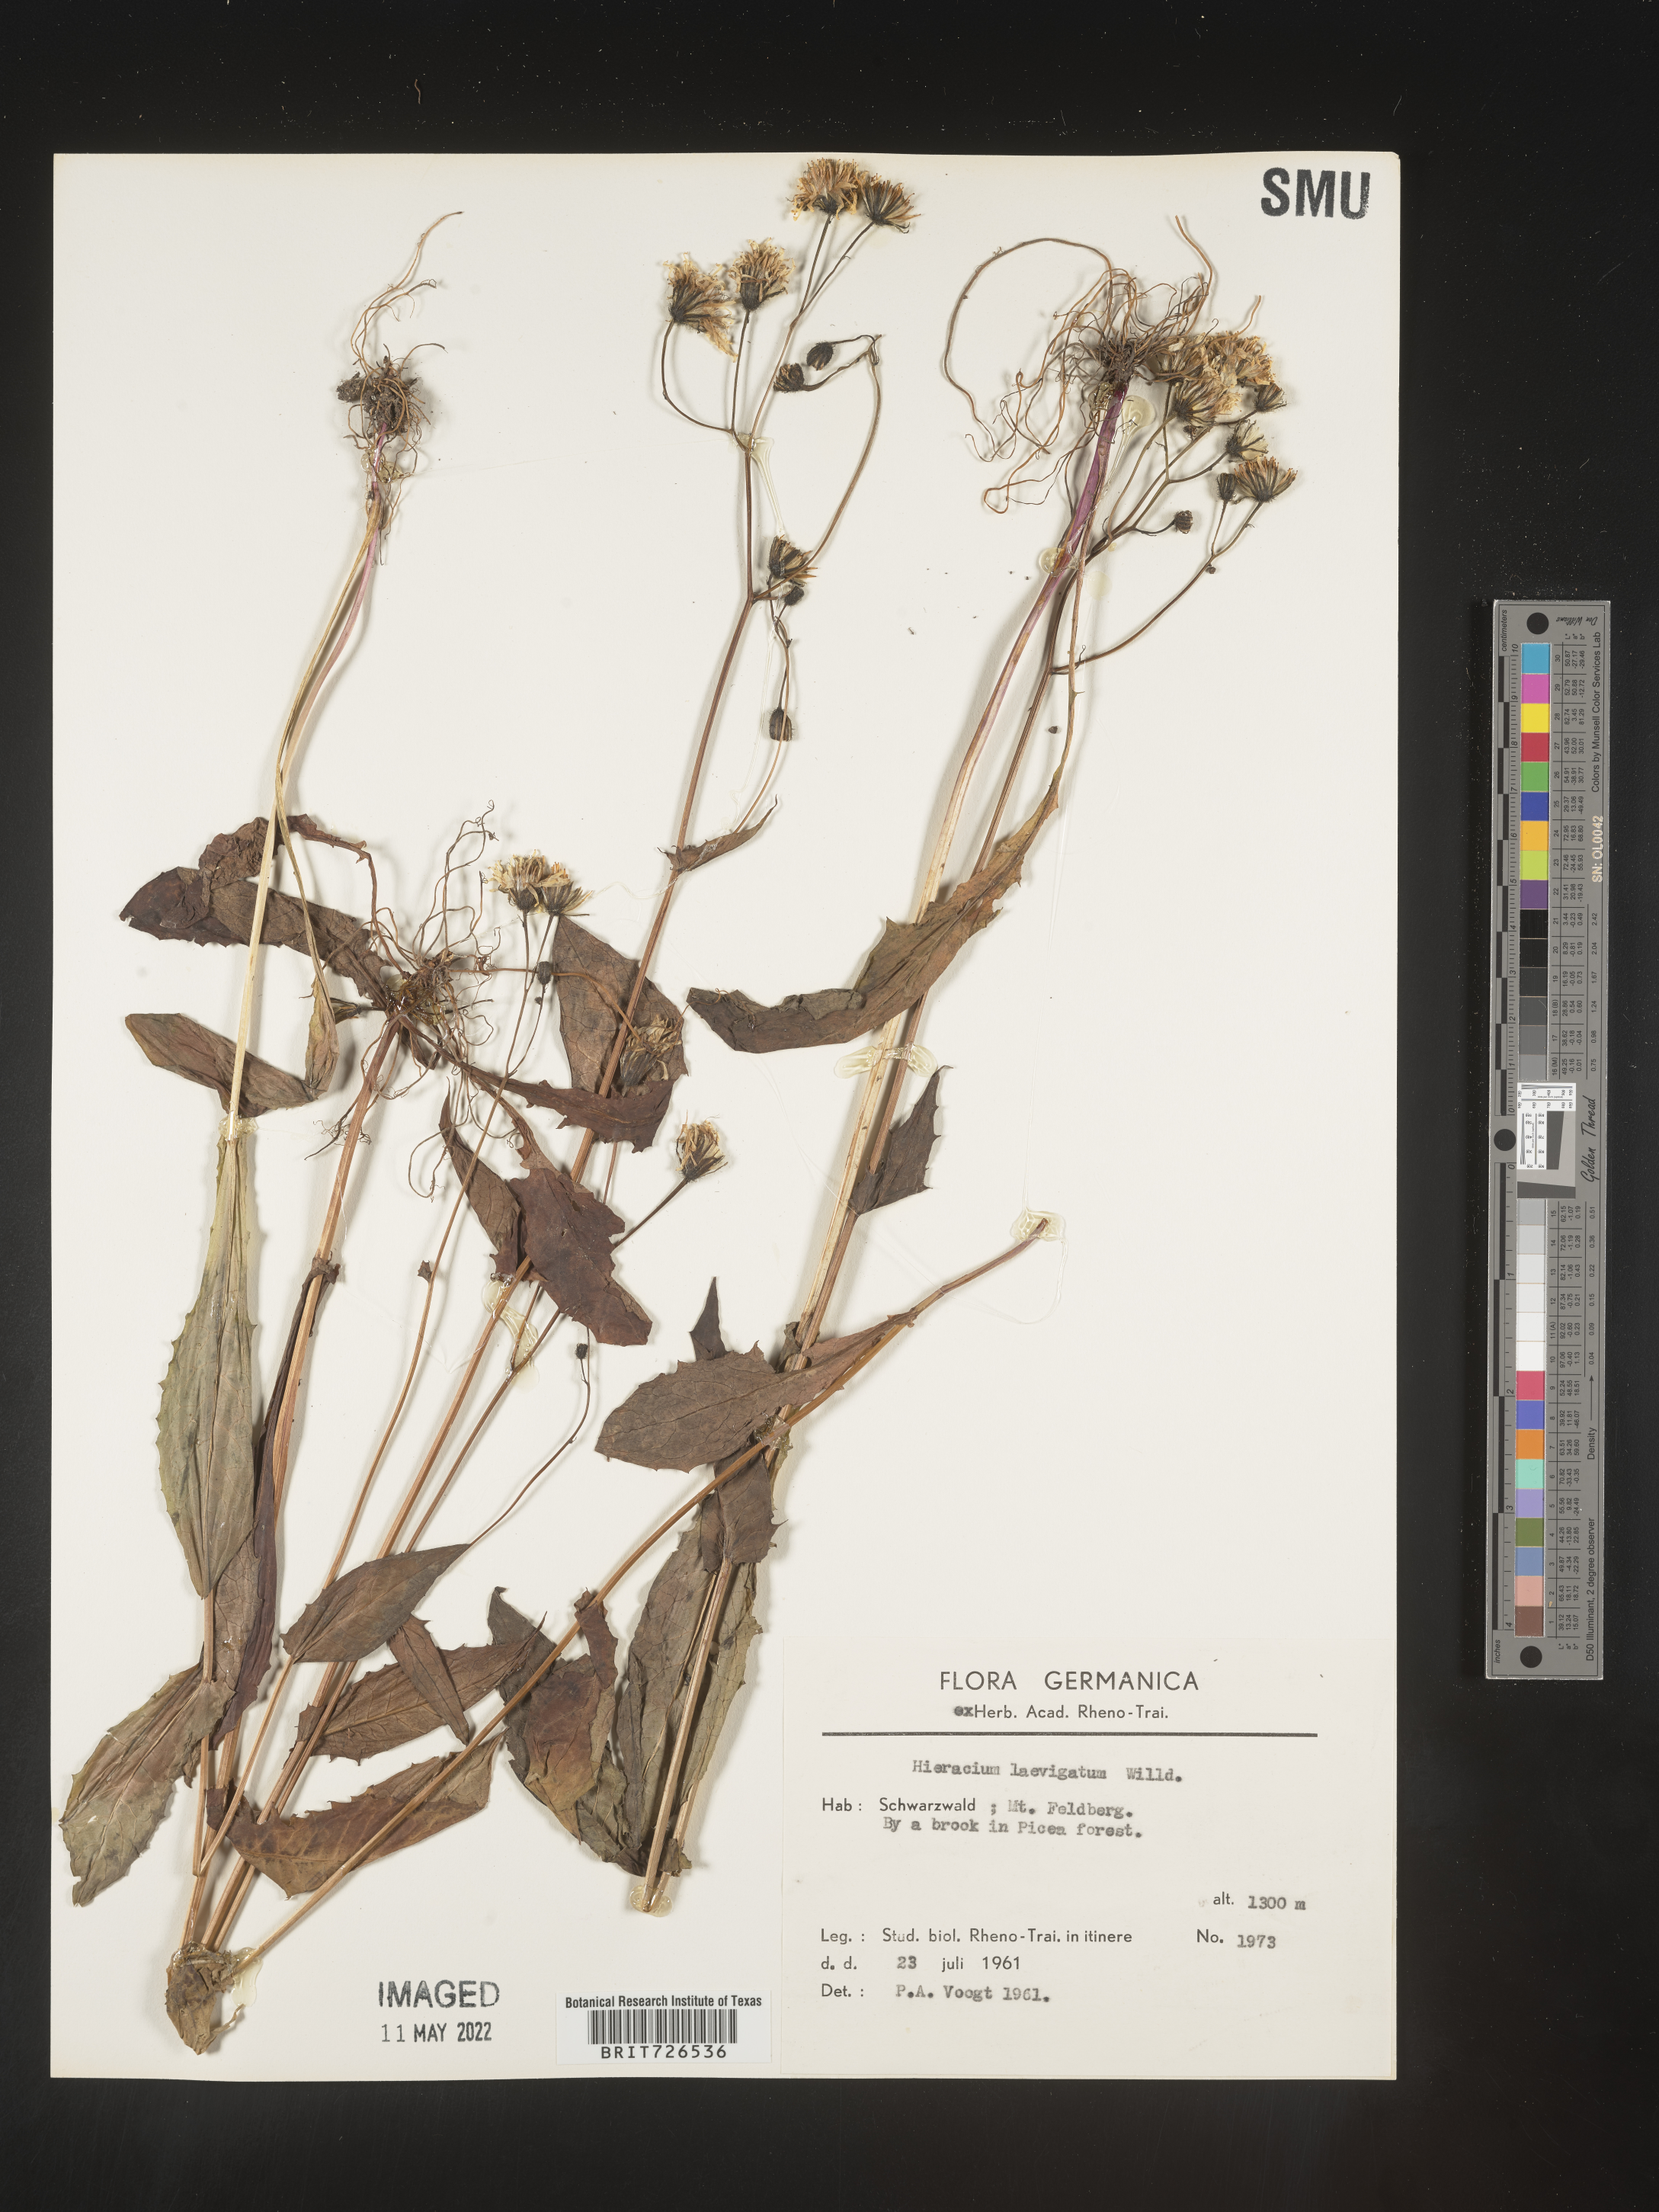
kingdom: Plantae
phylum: Tracheophyta
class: Magnoliopsida
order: Asterales
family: Asteraceae
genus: Hieracium
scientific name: Hieracium
